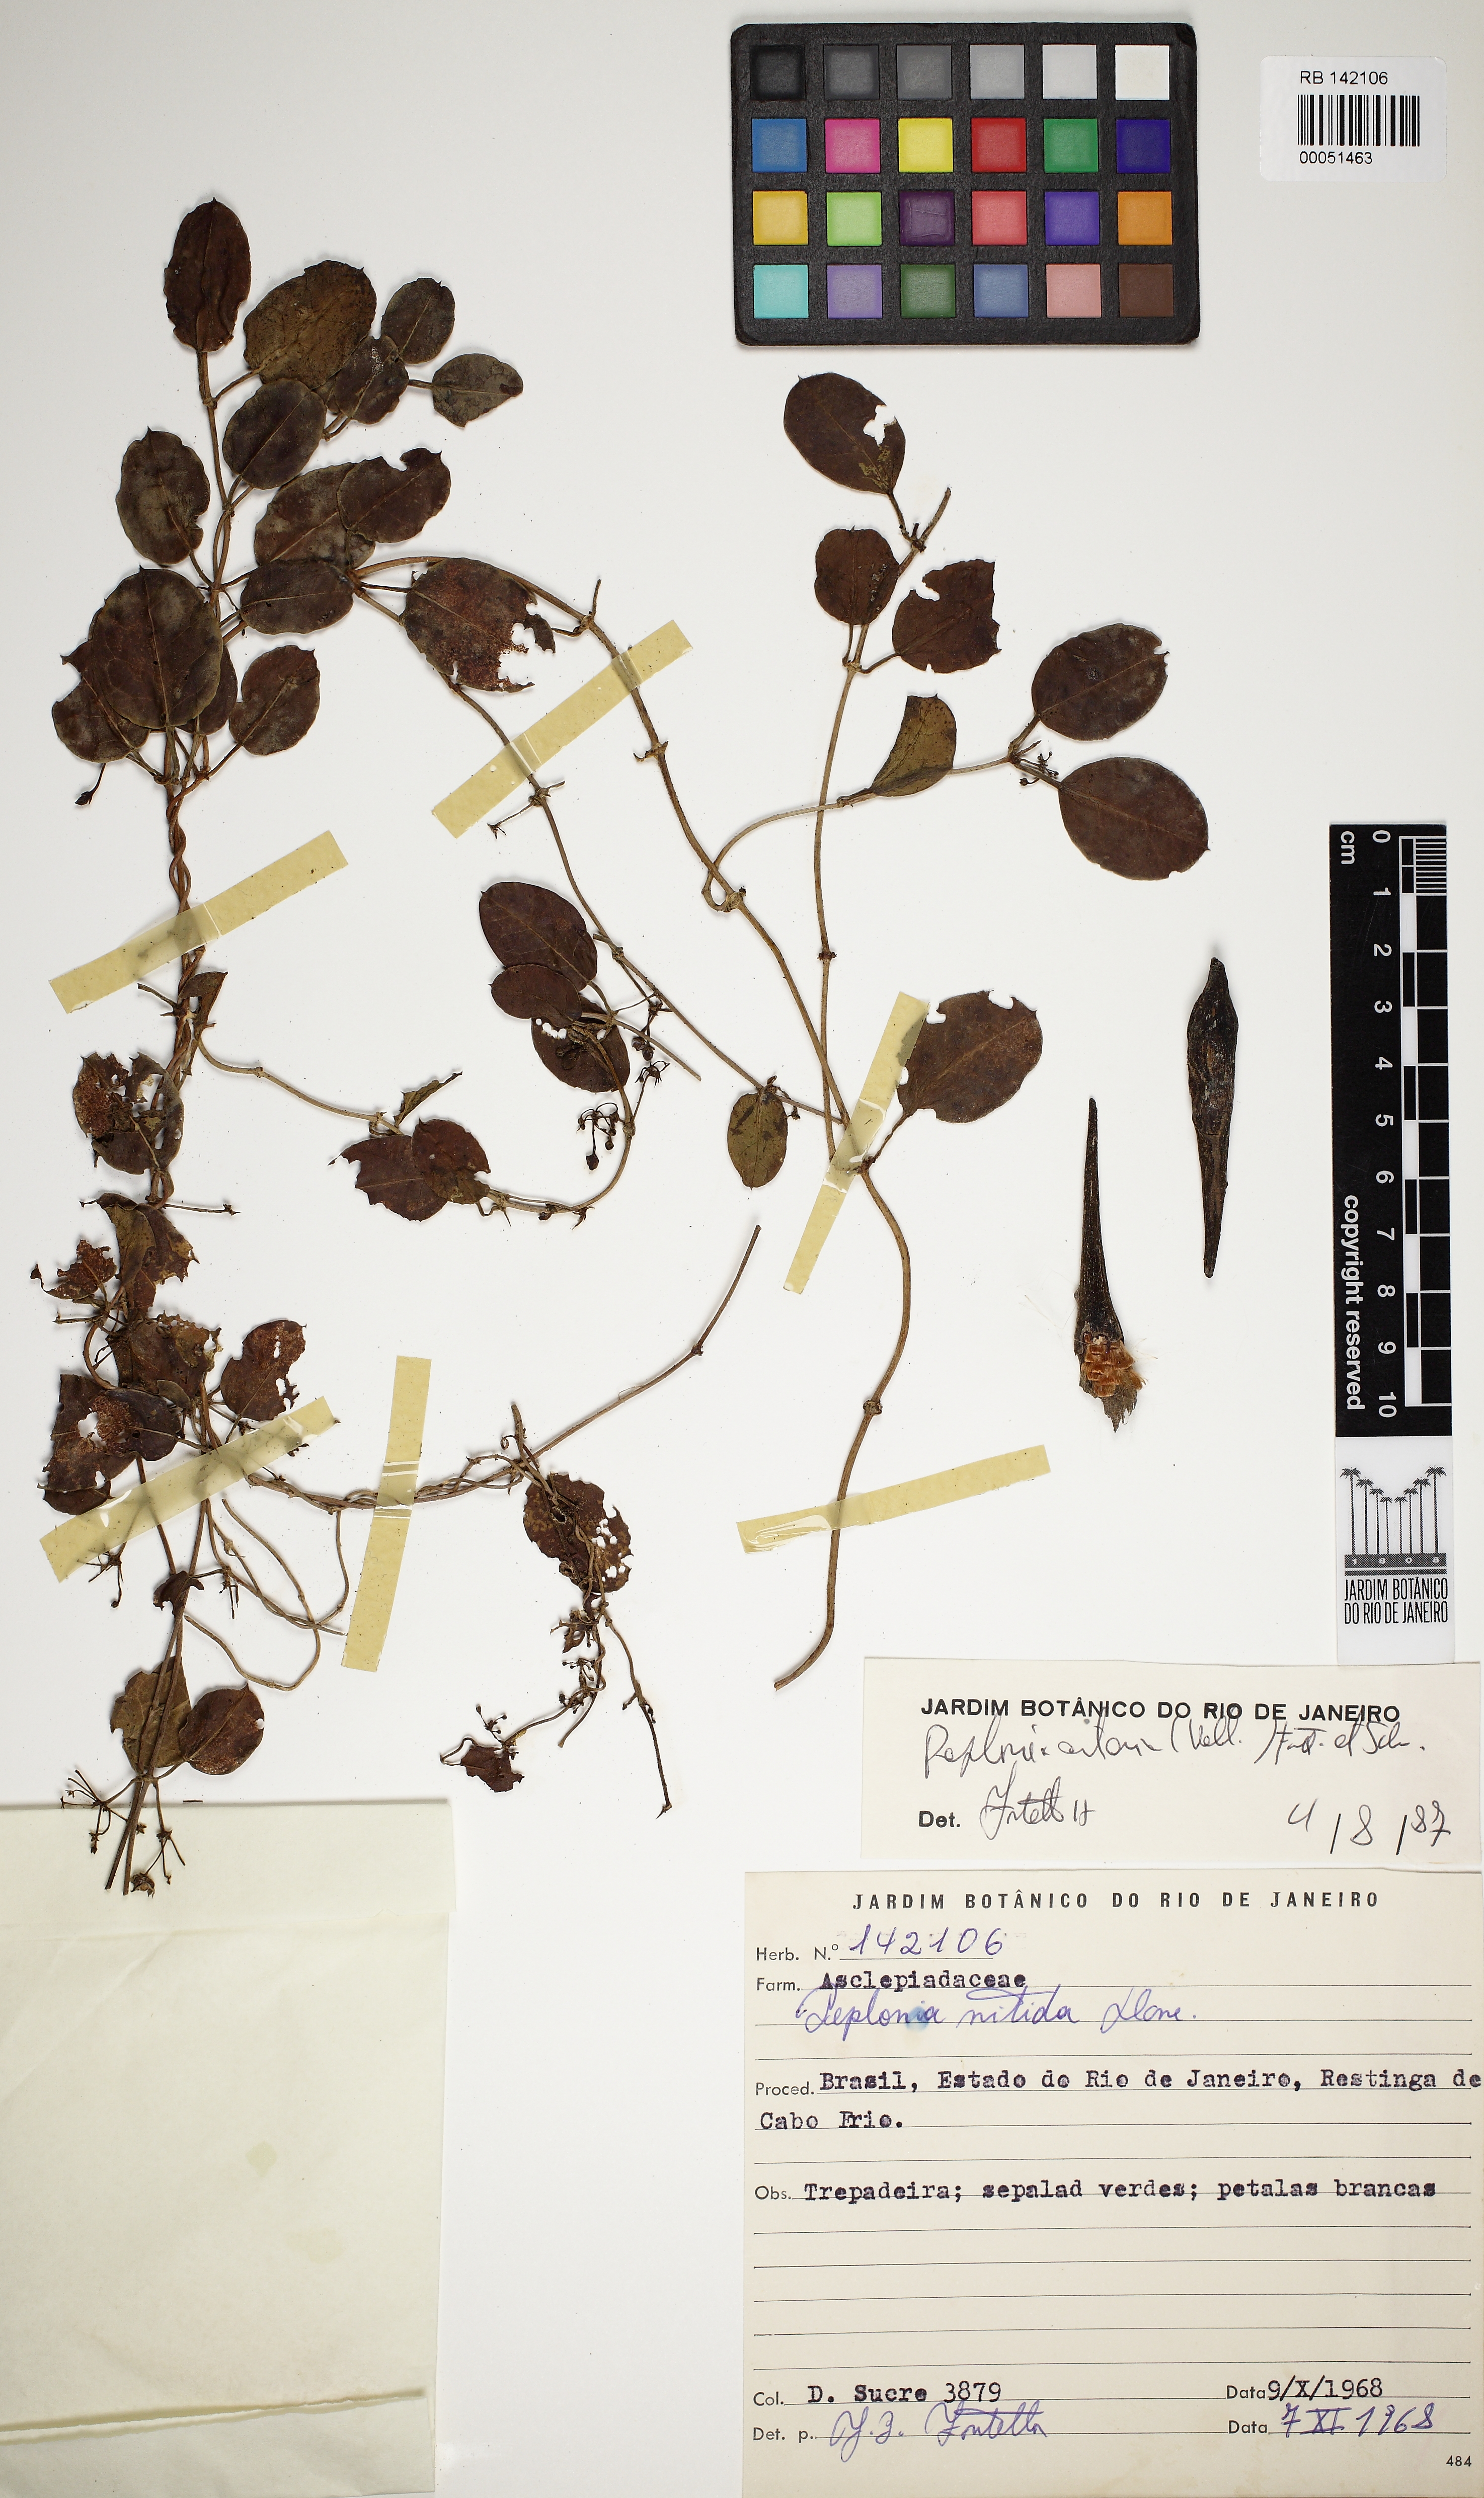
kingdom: Plantae
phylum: Tracheophyta
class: Magnoliopsida
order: Gentianales
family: Apocynaceae
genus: Peplonia
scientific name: Peplonia asteria
